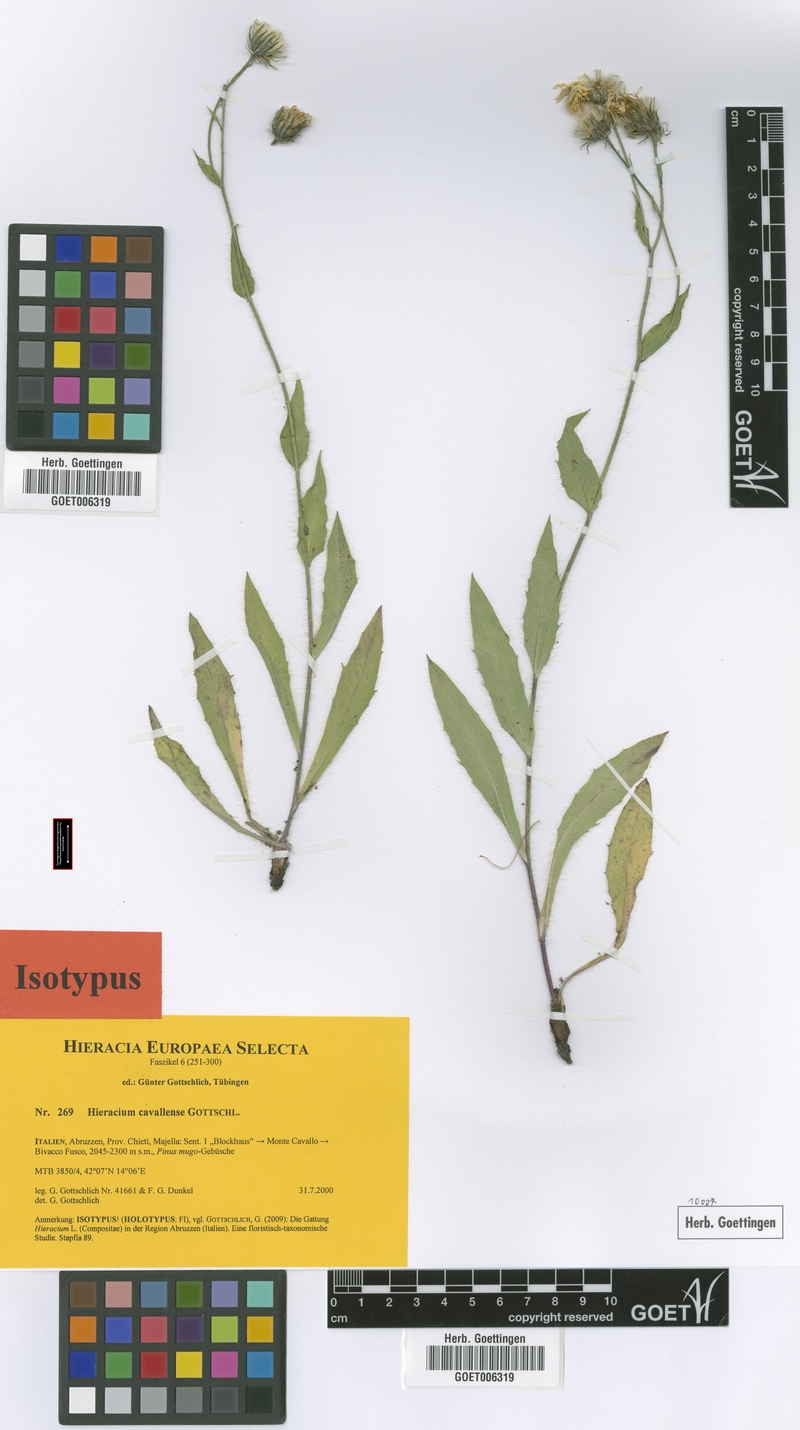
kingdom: Plantae
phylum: Tracheophyta
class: Magnoliopsida
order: Asterales
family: Asteraceae
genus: Hieracium
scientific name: Hieracium cavallense
